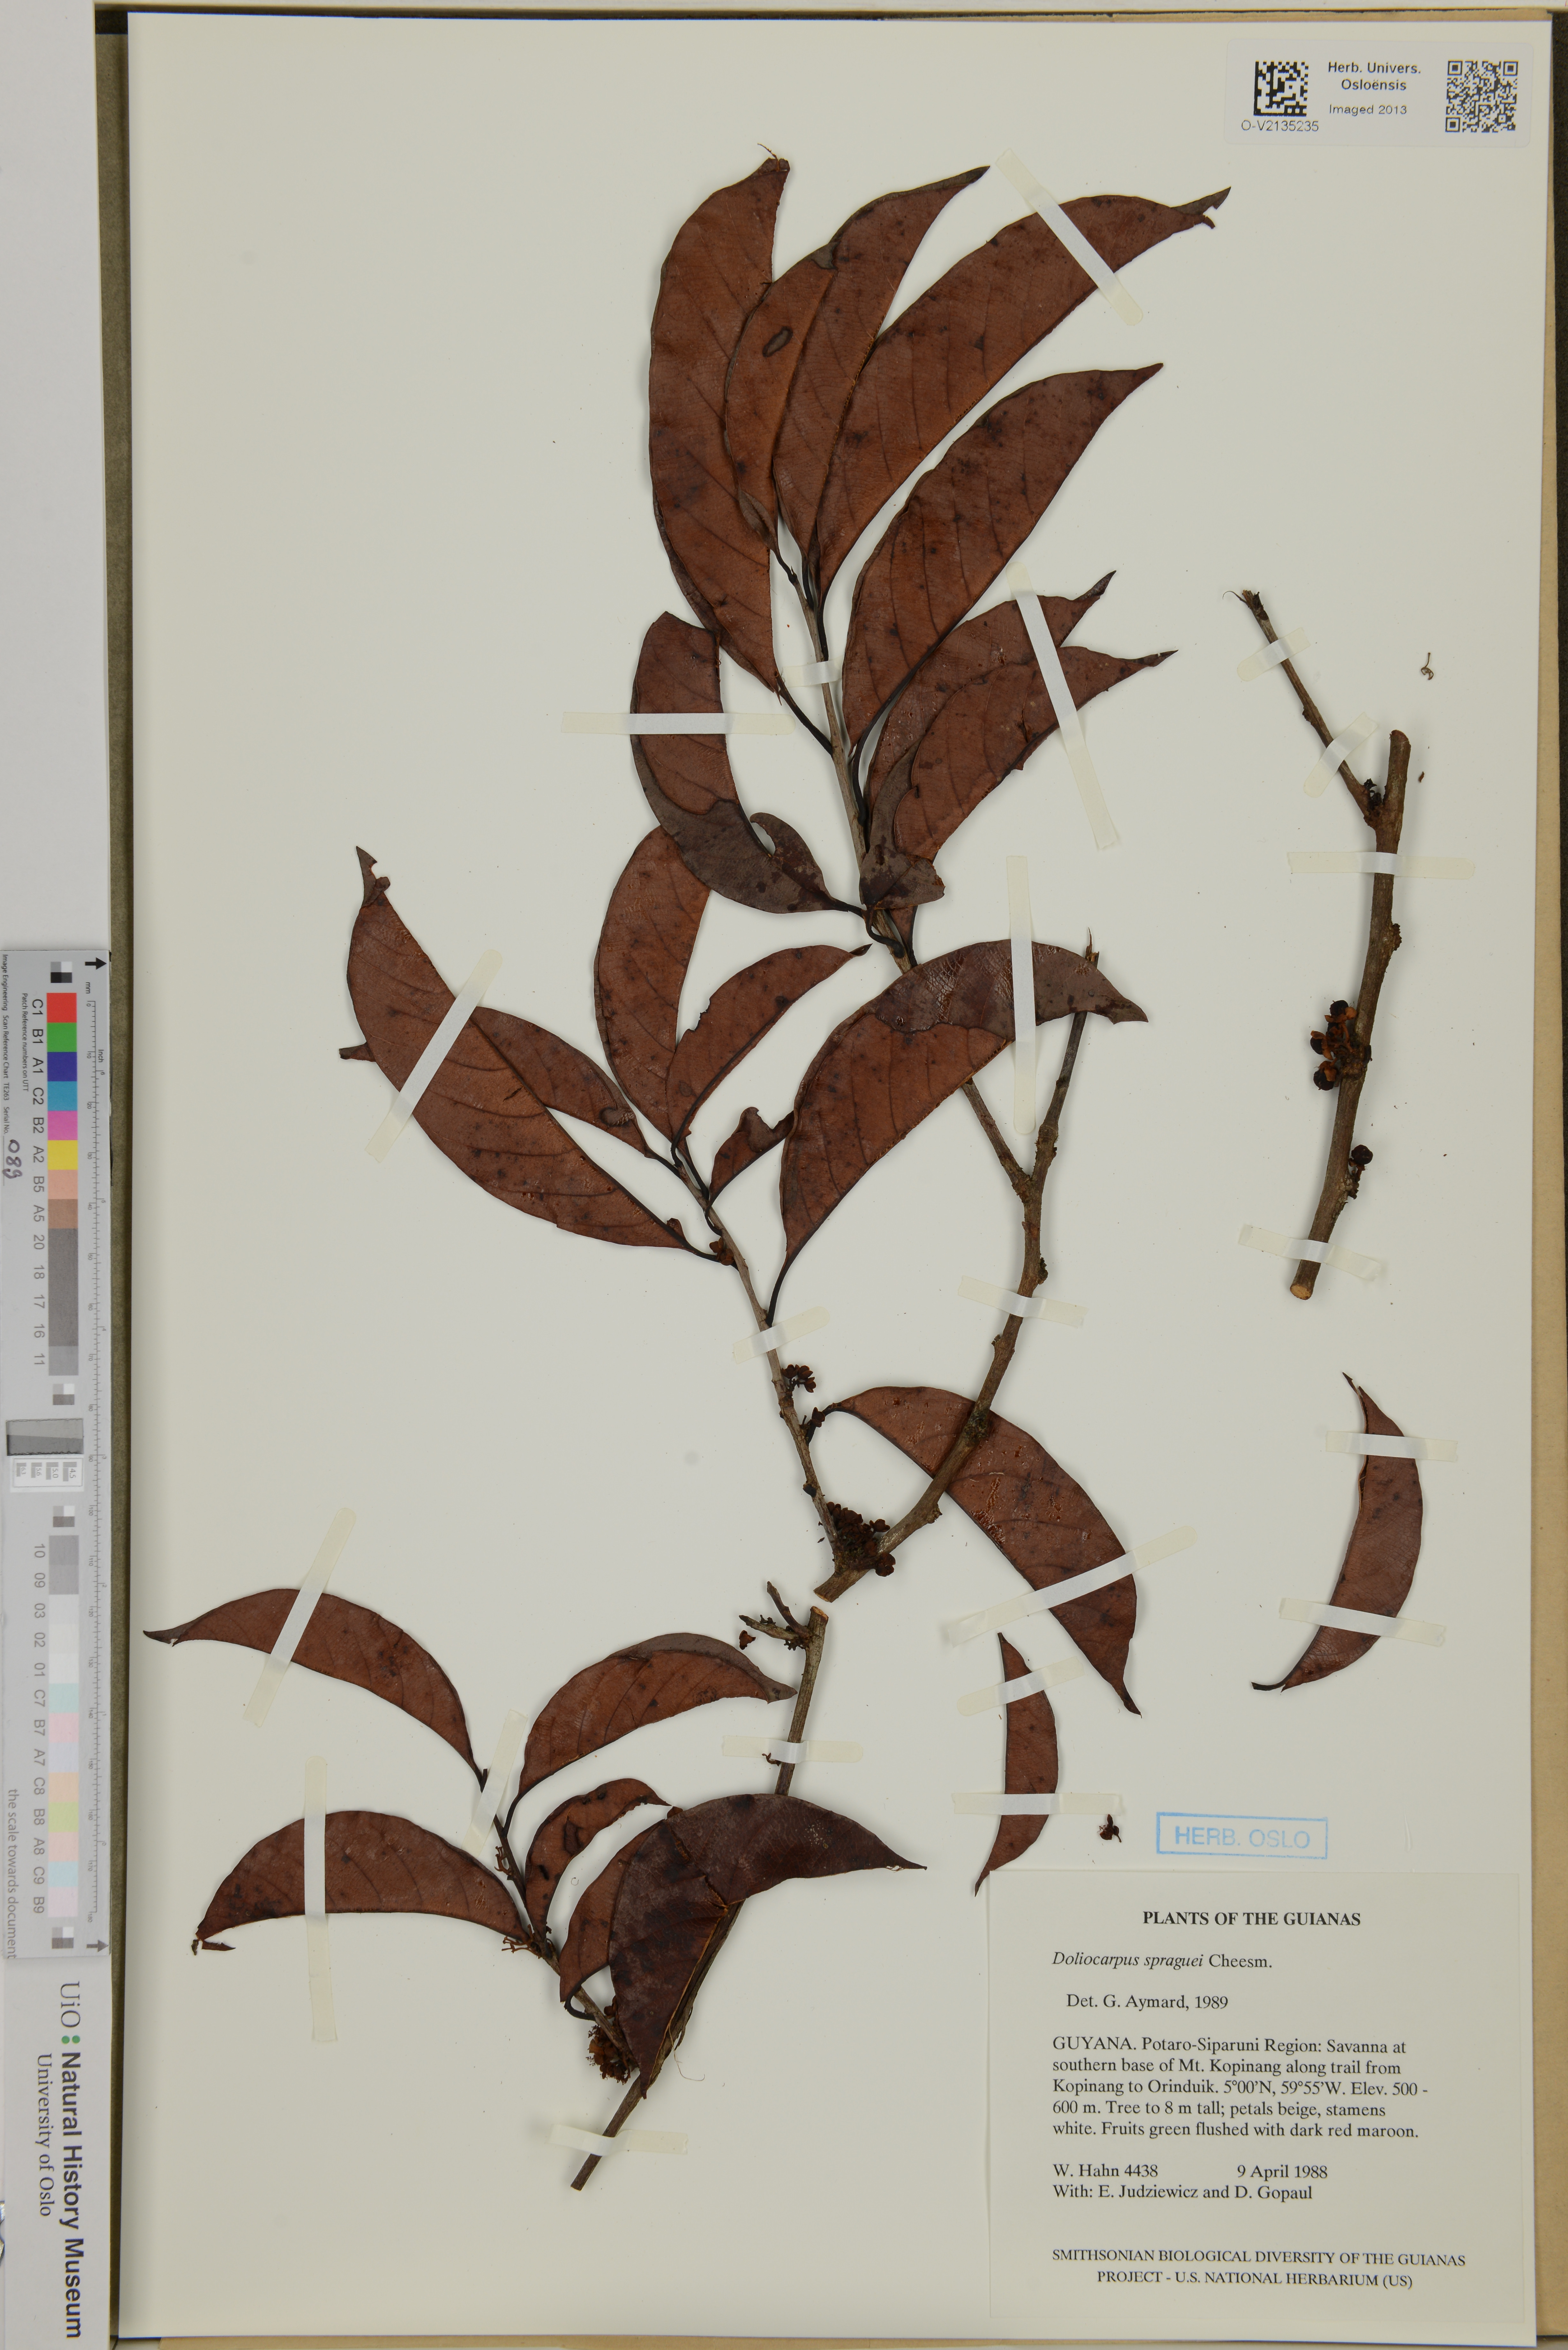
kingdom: Plantae
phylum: Tracheophyta
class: Magnoliopsida
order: Dilleniales
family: Dilleniaceae
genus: Doliocarpus
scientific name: Doliocarpus spraguei
